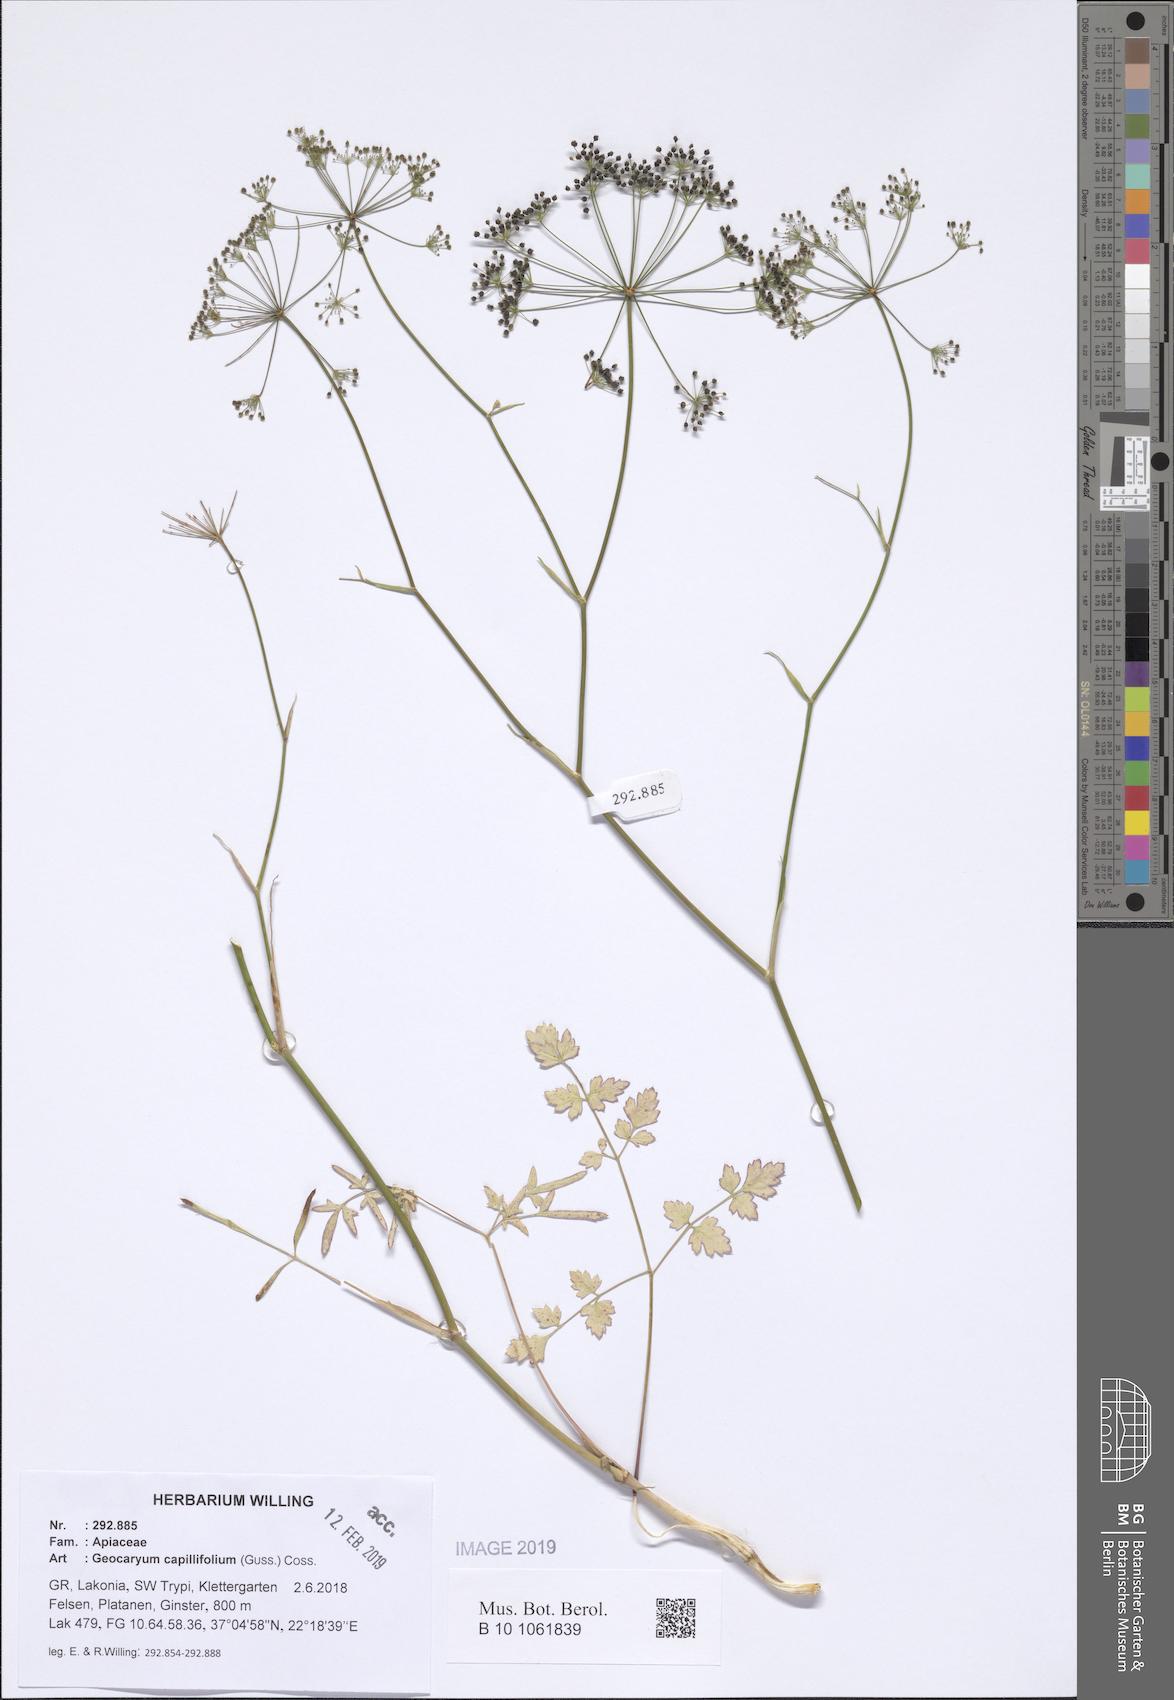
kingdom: Plantae
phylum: Tracheophyta
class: Magnoliopsida
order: Apiales
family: Apiaceae
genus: Geocaryum
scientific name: Geocaryum capillifolium
